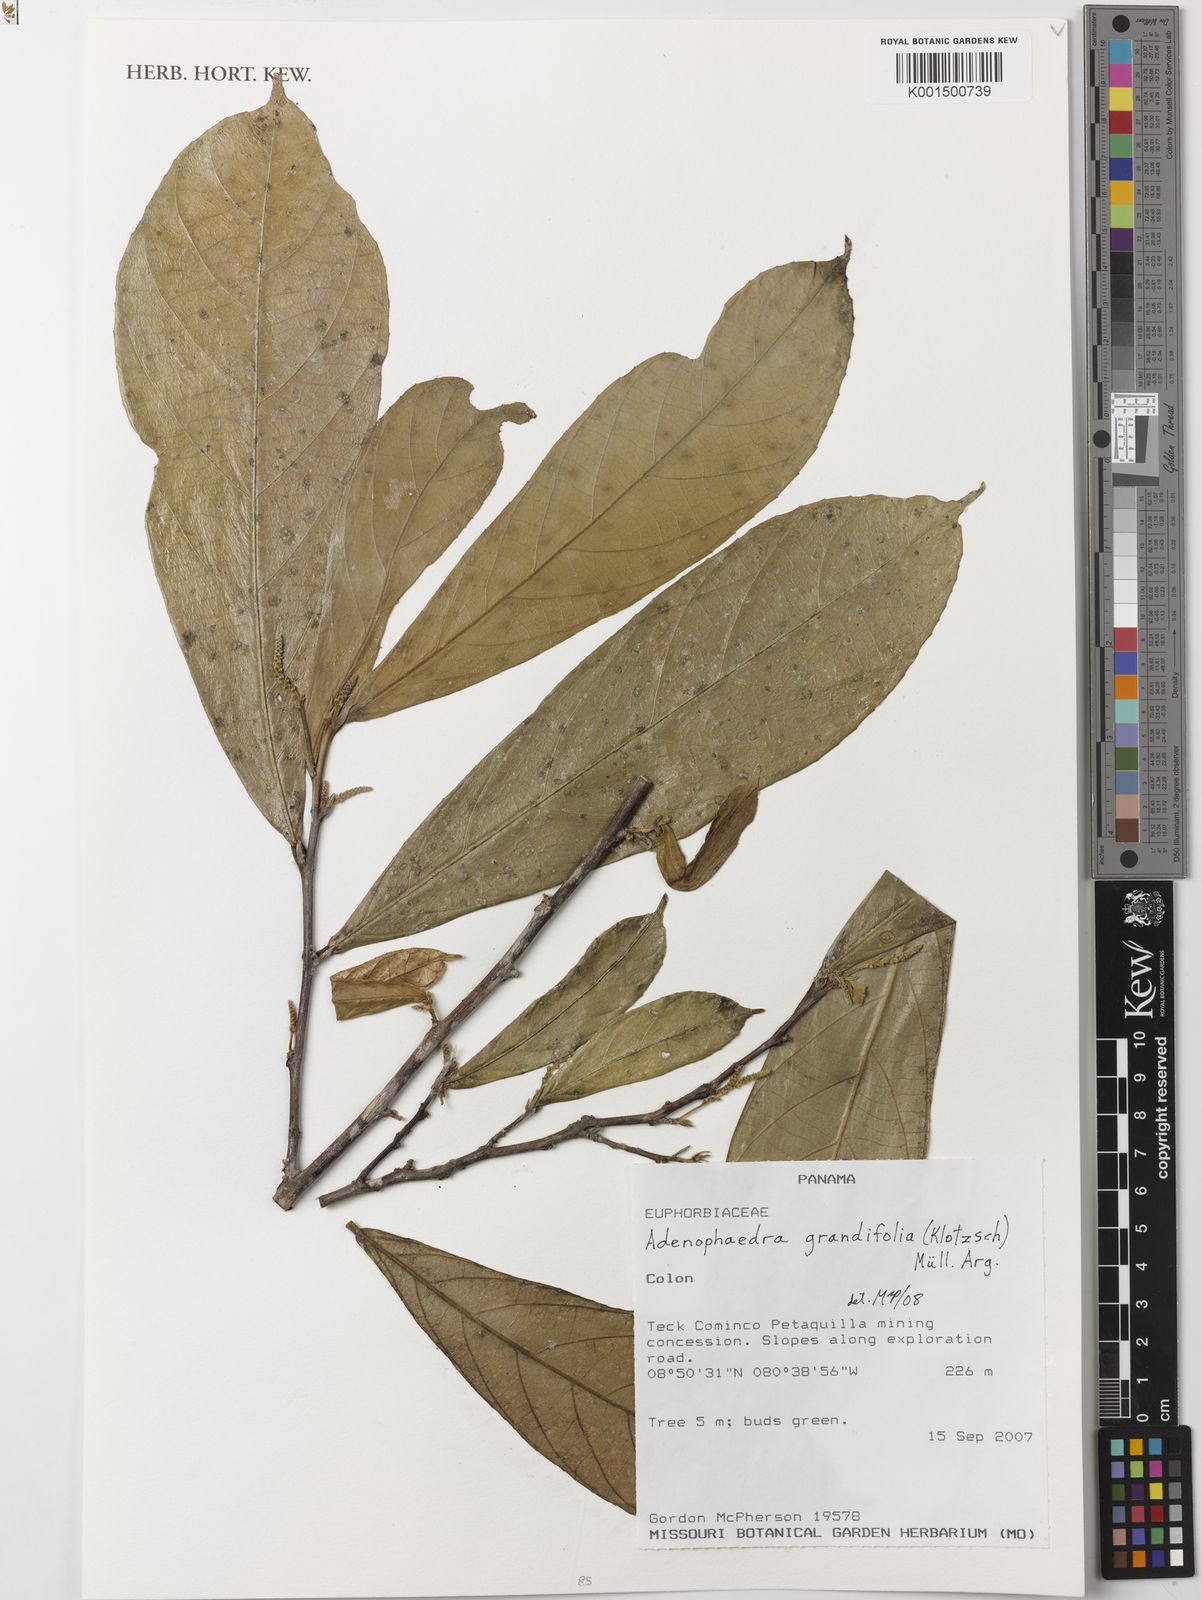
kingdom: Plantae
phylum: Tracheophyta
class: Magnoliopsida
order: Malpighiales
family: Euphorbiaceae
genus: Adenophaedra
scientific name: Adenophaedra grandifolia
